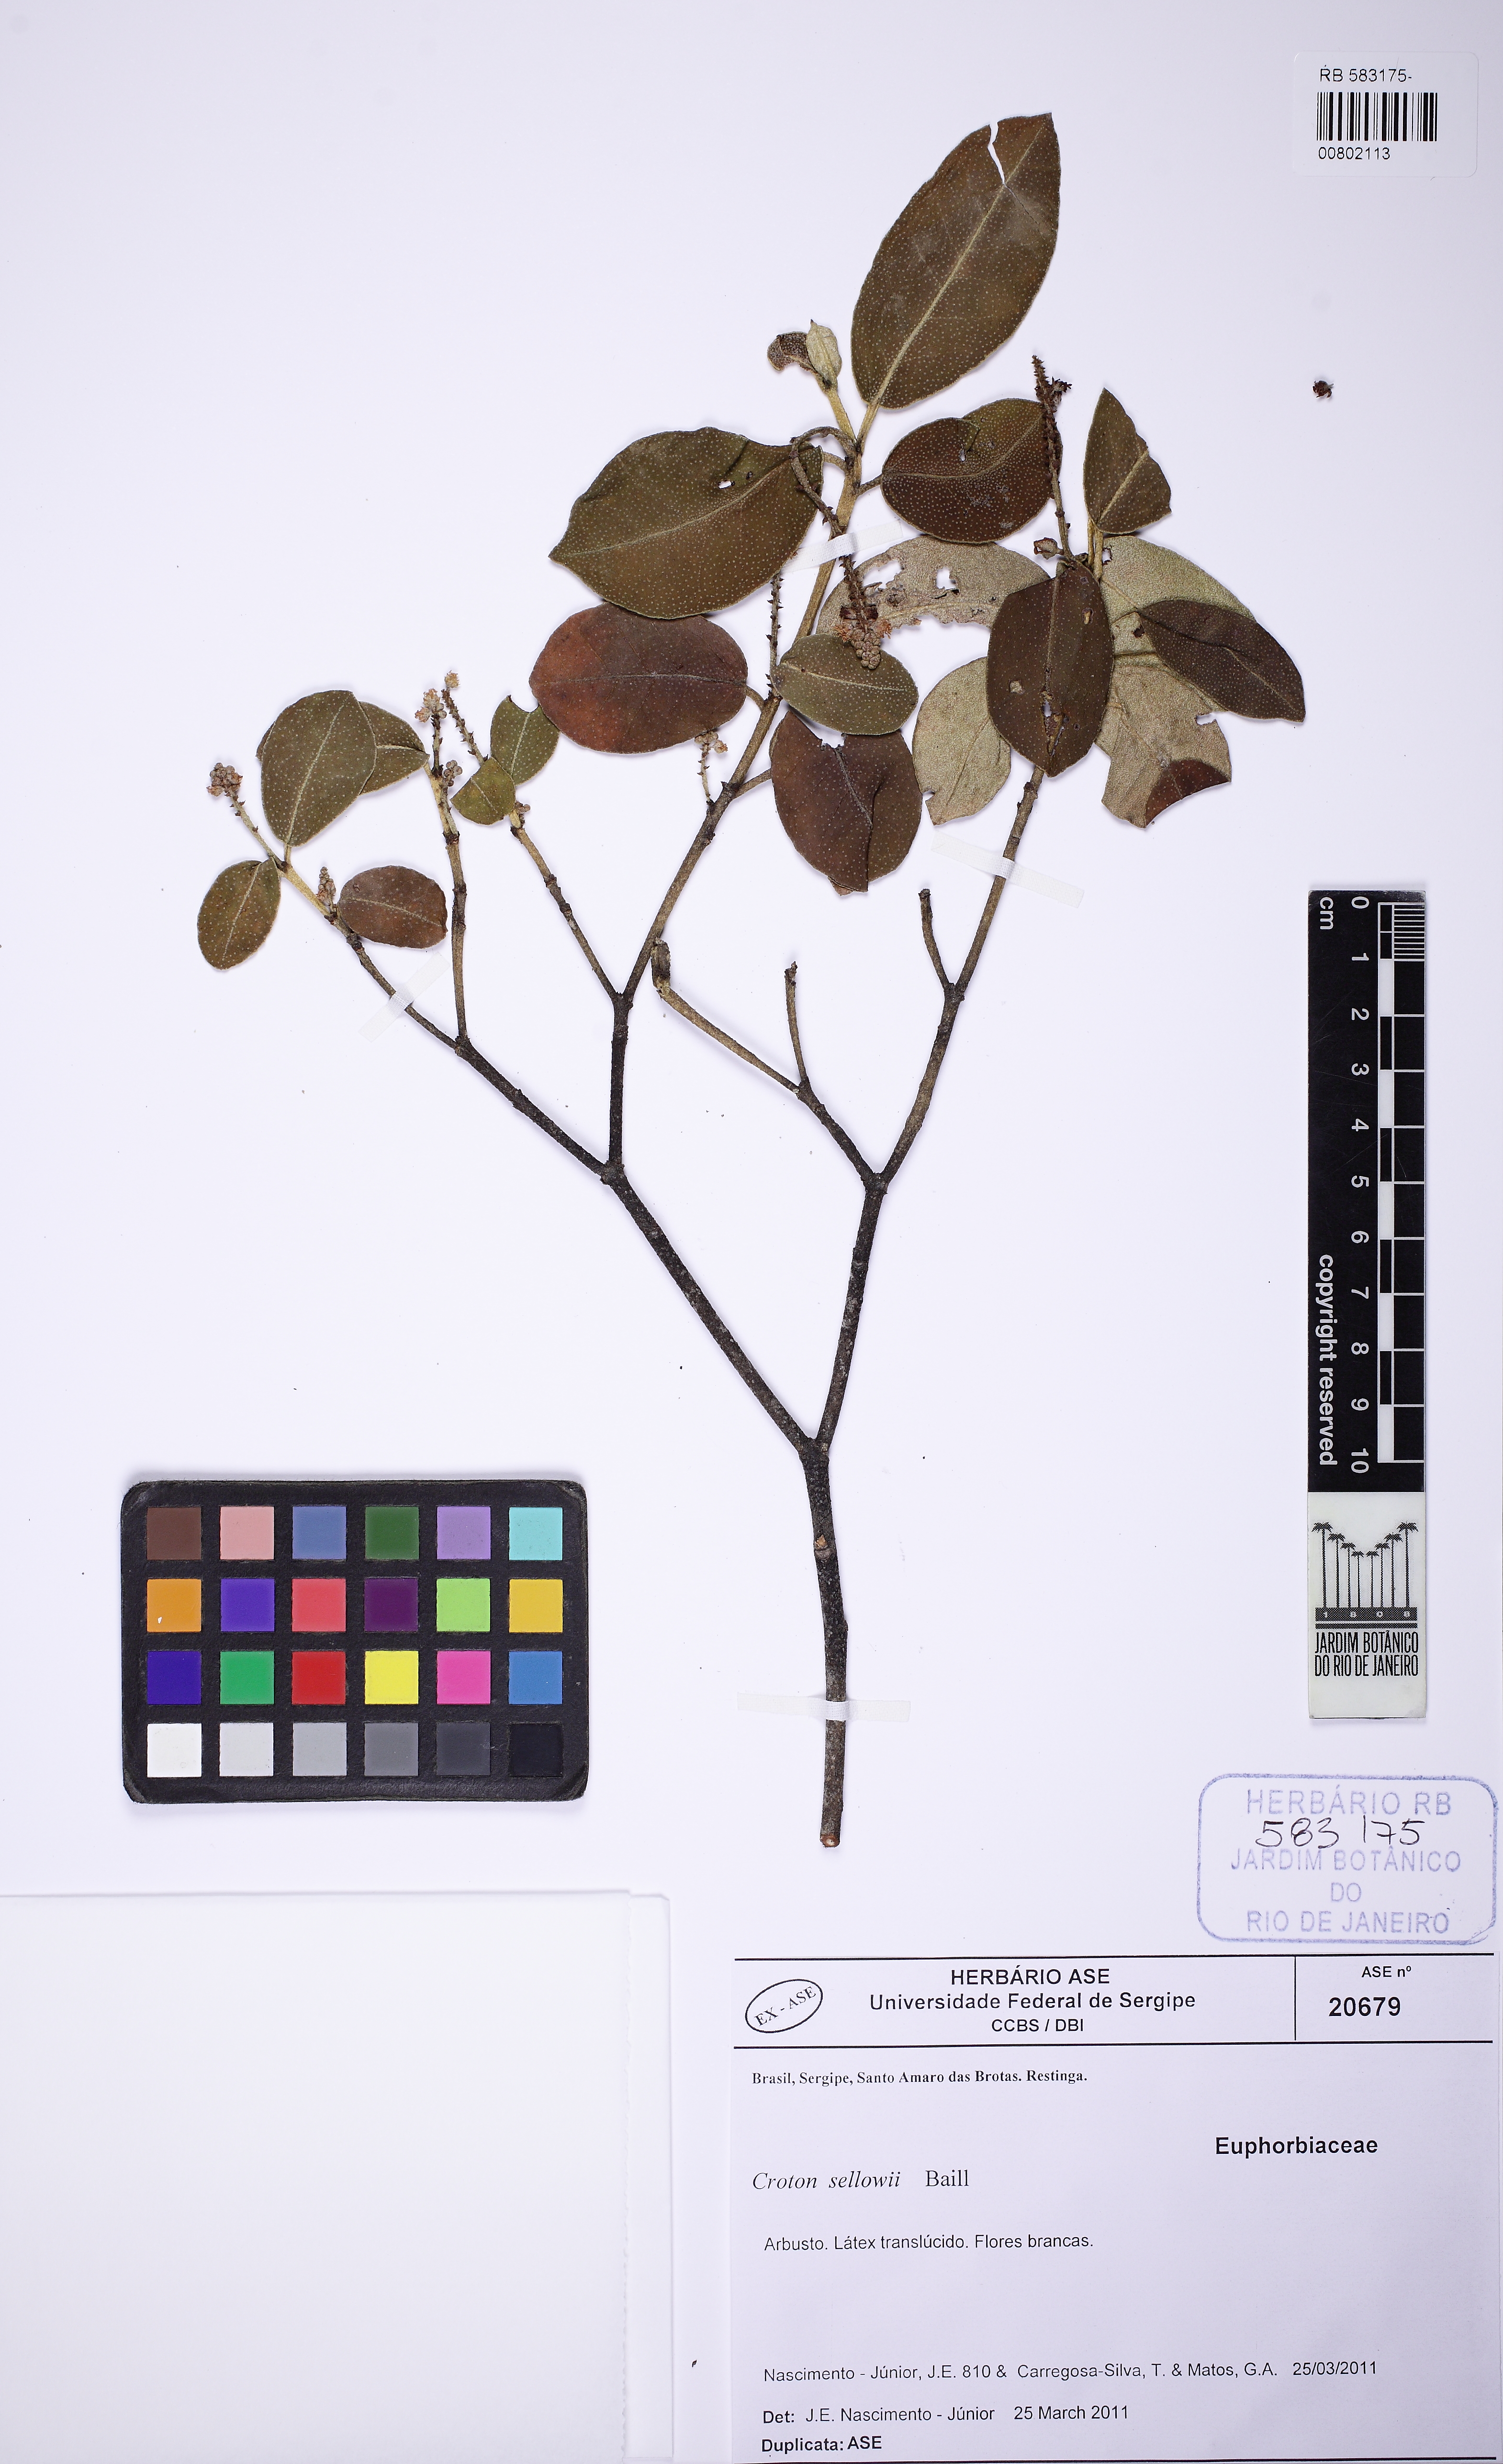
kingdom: Plantae
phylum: Tracheophyta
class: Magnoliopsida
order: Malpighiales
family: Euphorbiaceae
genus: Croton
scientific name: Croton sellowii
